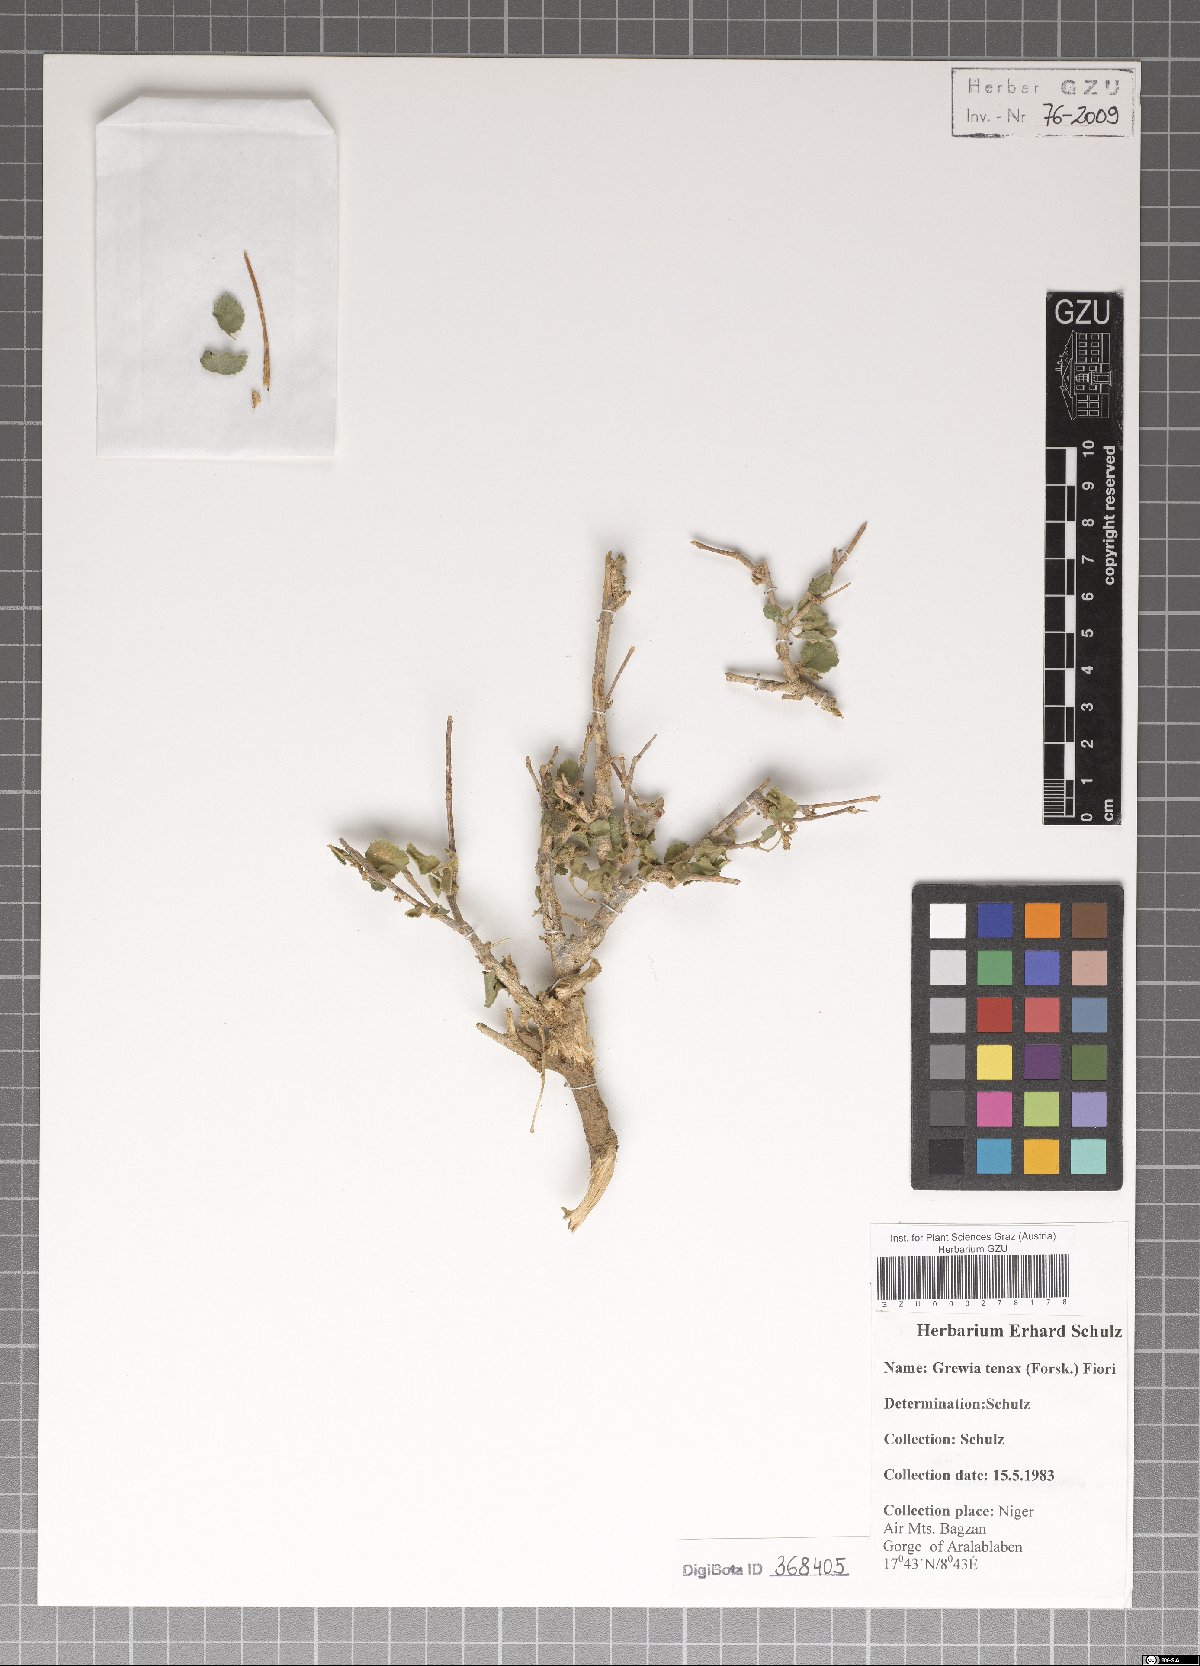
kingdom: Plantae
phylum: Tracheophyta
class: Magnoliopsida
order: Malvales
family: Malvaceae
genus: Grewia
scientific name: Grewia tenax
